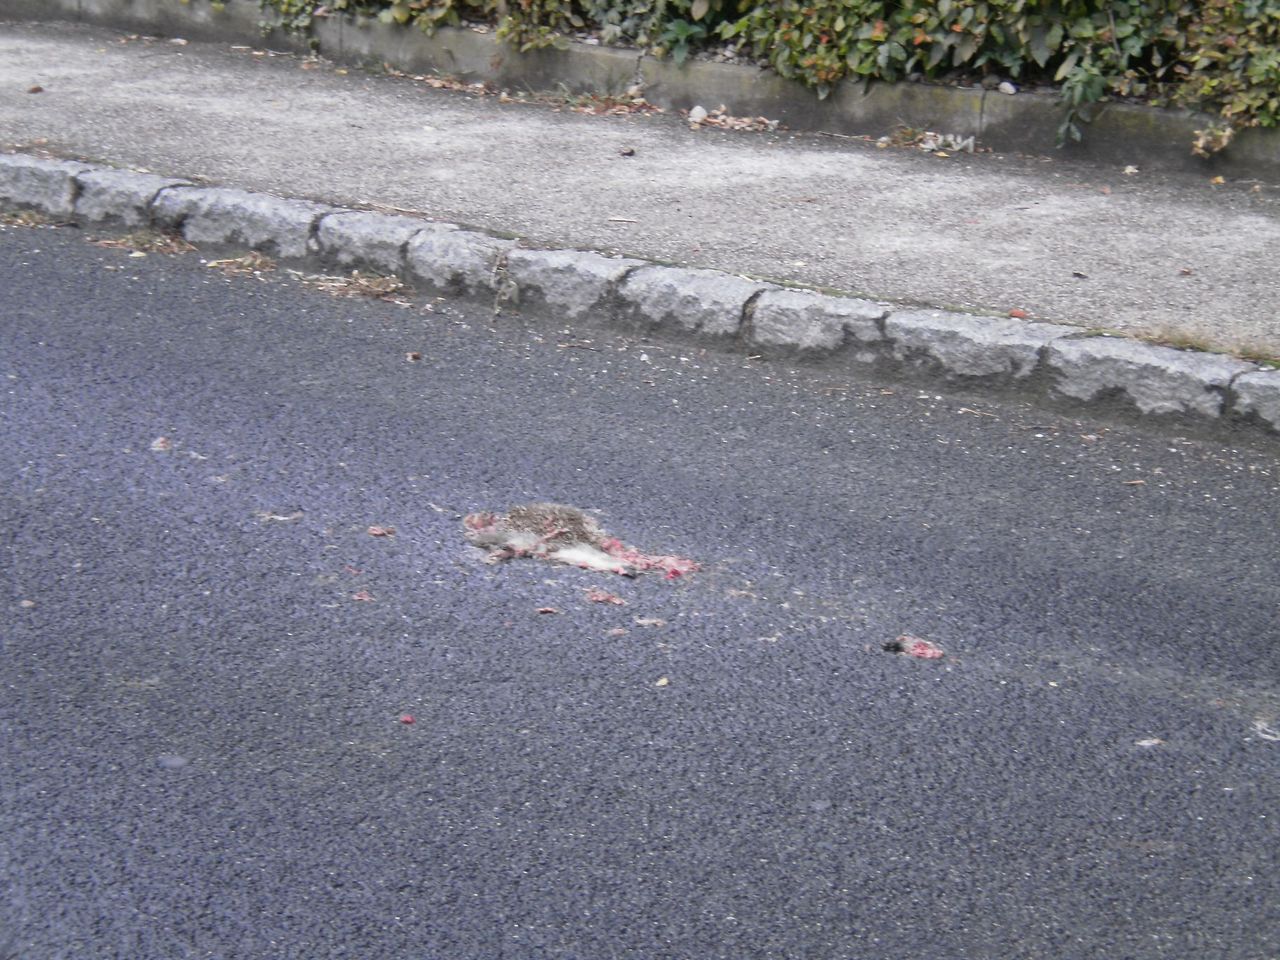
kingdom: Animalia
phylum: Chordata
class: Mammalia
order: Erinaceomorpha
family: Erinaceidae
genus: Erinaceus
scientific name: Erinaceus
